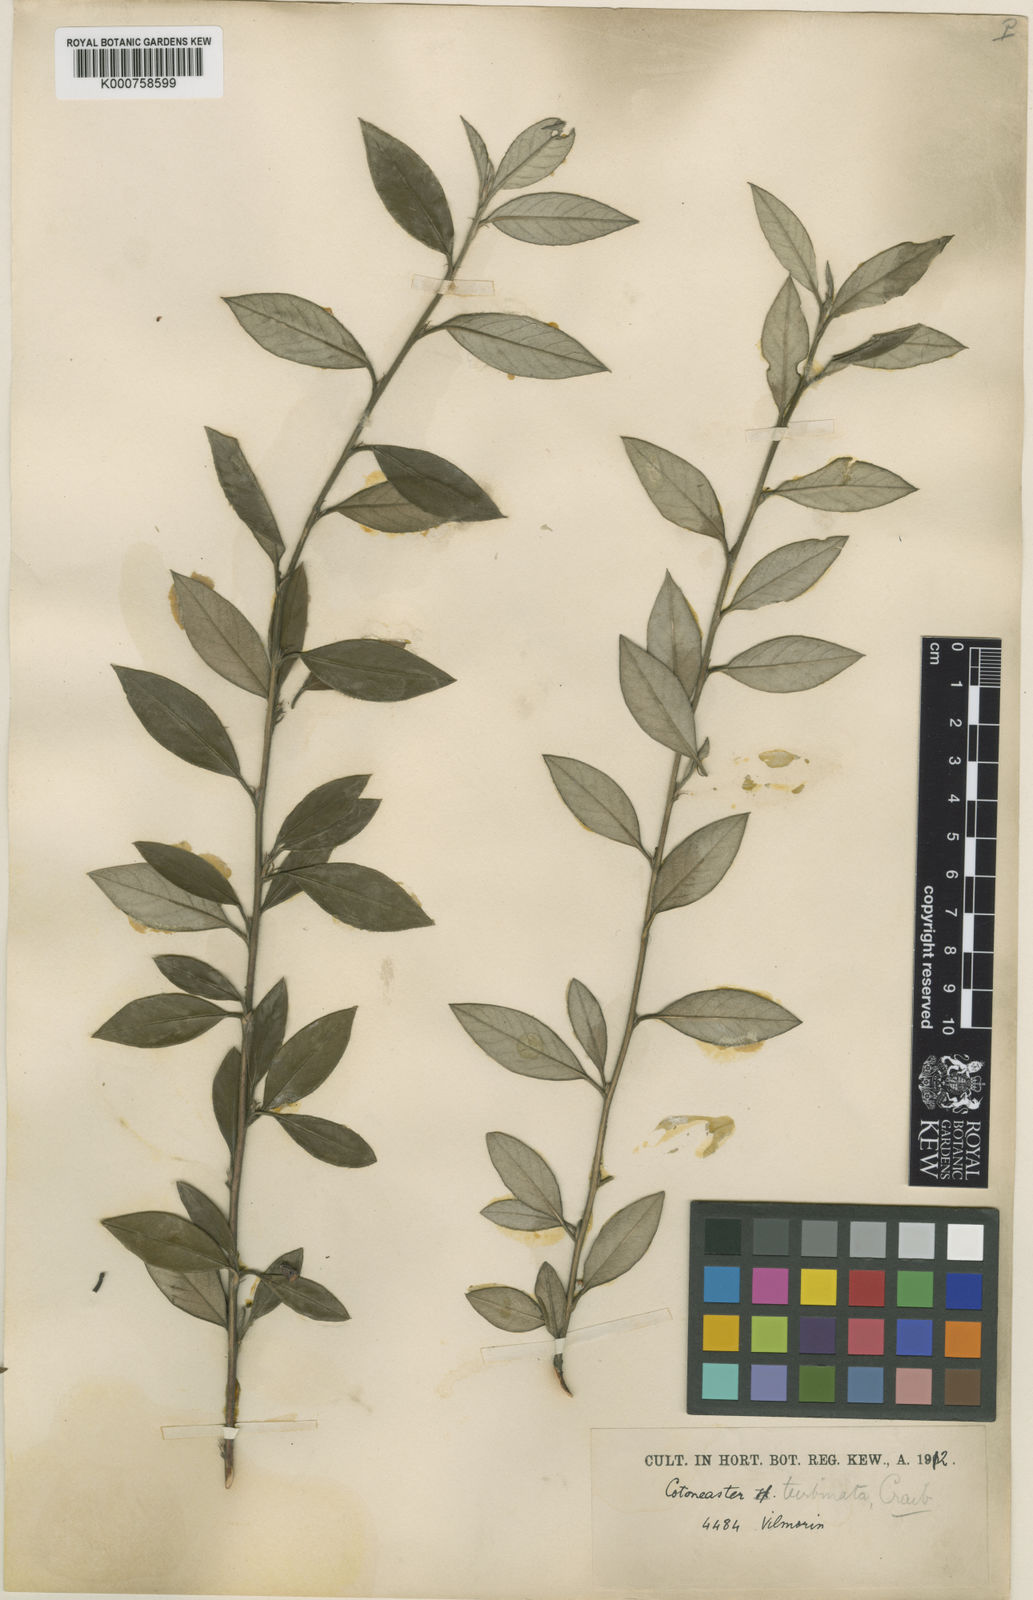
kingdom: Plantae
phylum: Tracheophyta
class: Magnoliopsida
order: Rosales
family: Rosaceae
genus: Cotoneaster
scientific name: Cotoneaster turbinatus
